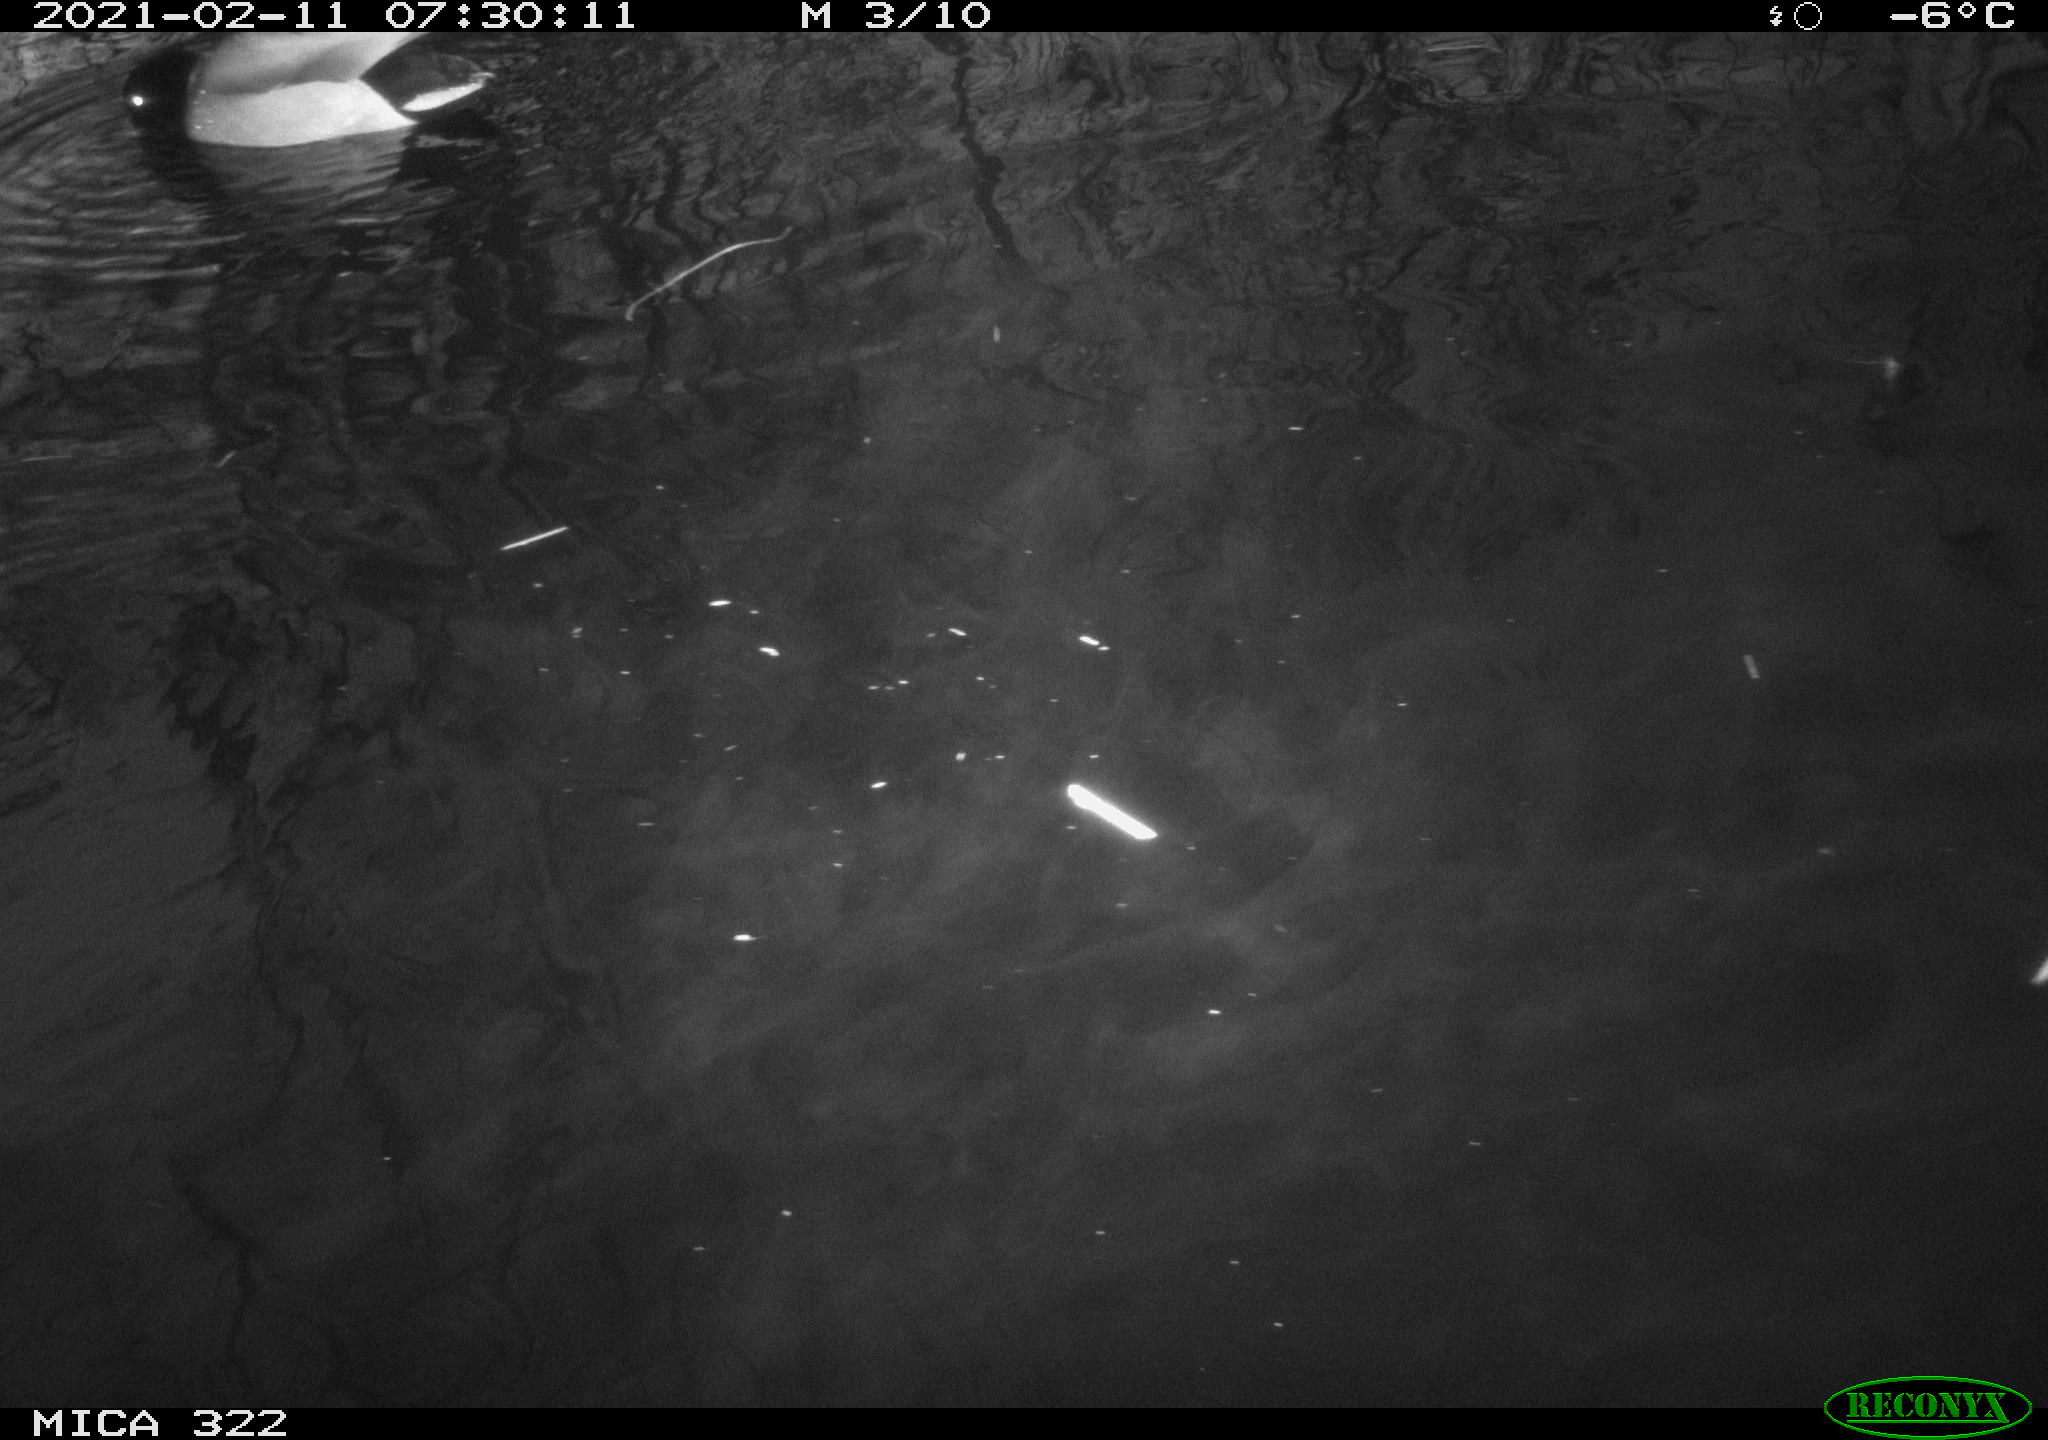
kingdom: Animalia
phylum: Chordata
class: Aves
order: Anseriformes
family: Anatidae
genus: Anas
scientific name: Anas platyrhynchos
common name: Mallard
